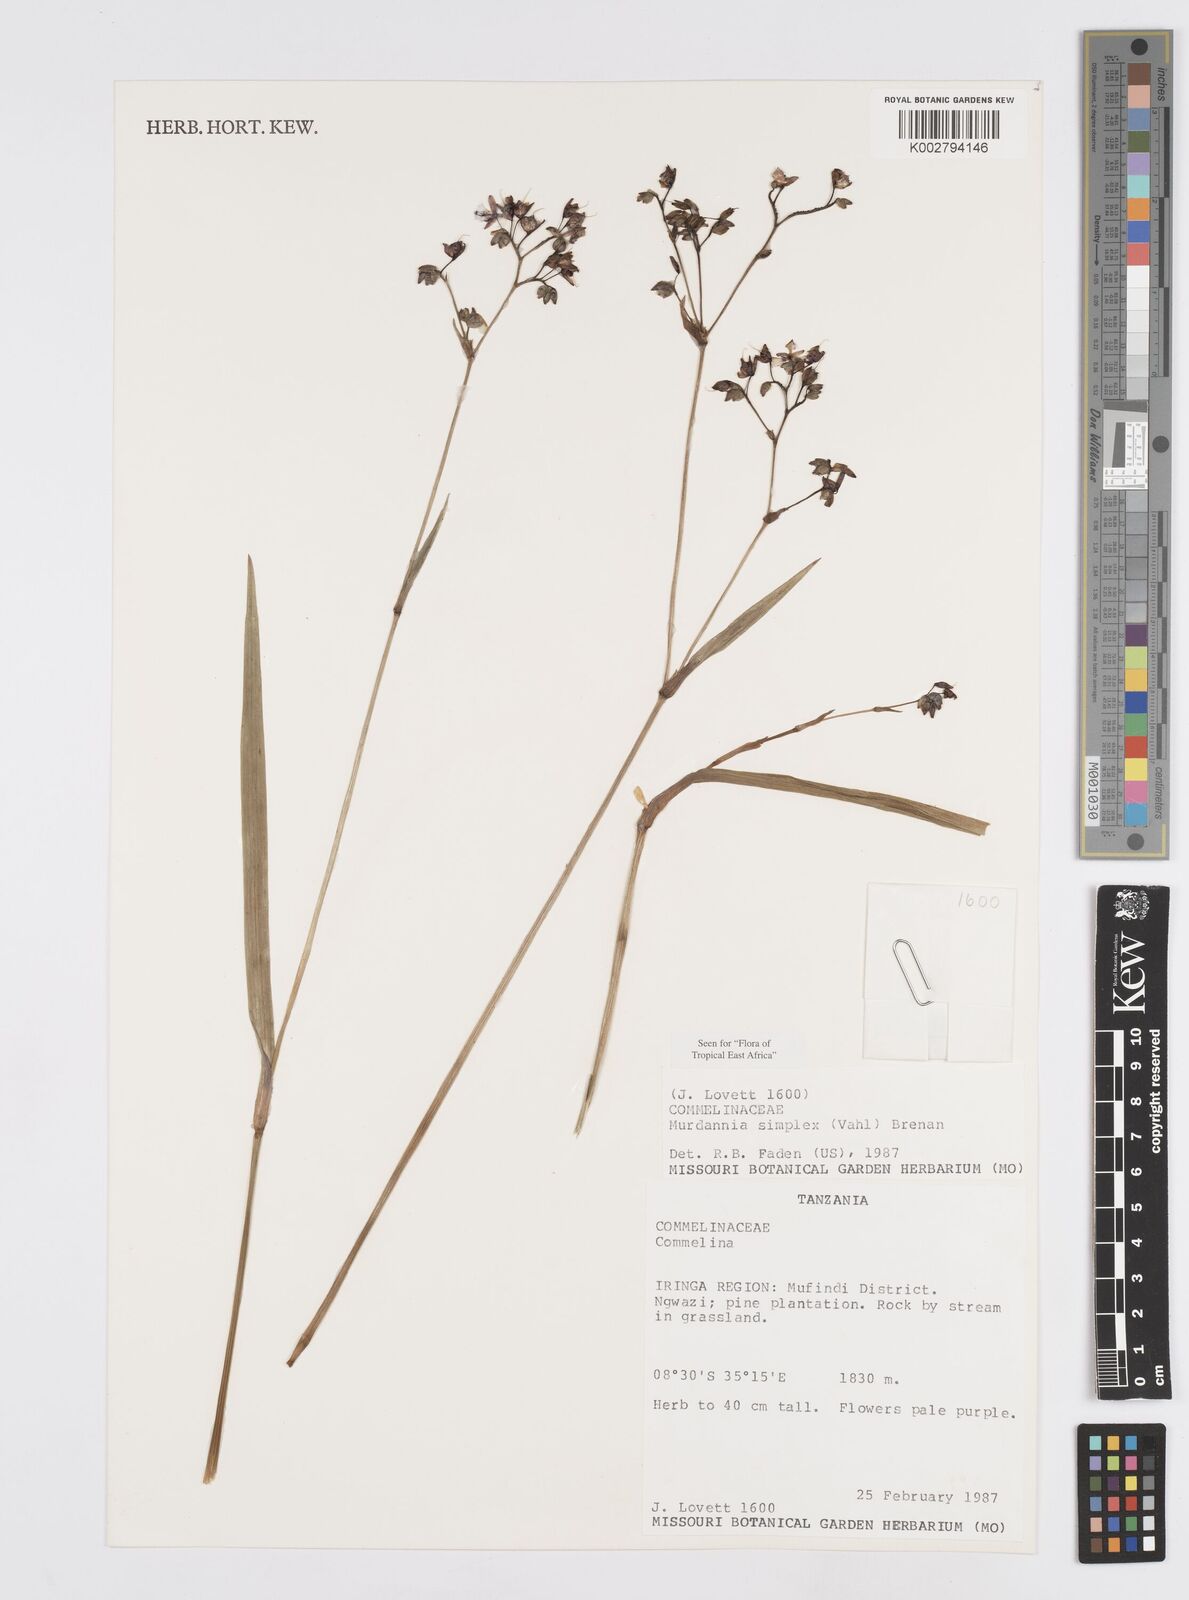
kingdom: Plantae
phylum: Tracheophyta
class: Liliopsida
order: Commelinales
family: Commelinaceae
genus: Murdannia
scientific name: Murdannia simplex
